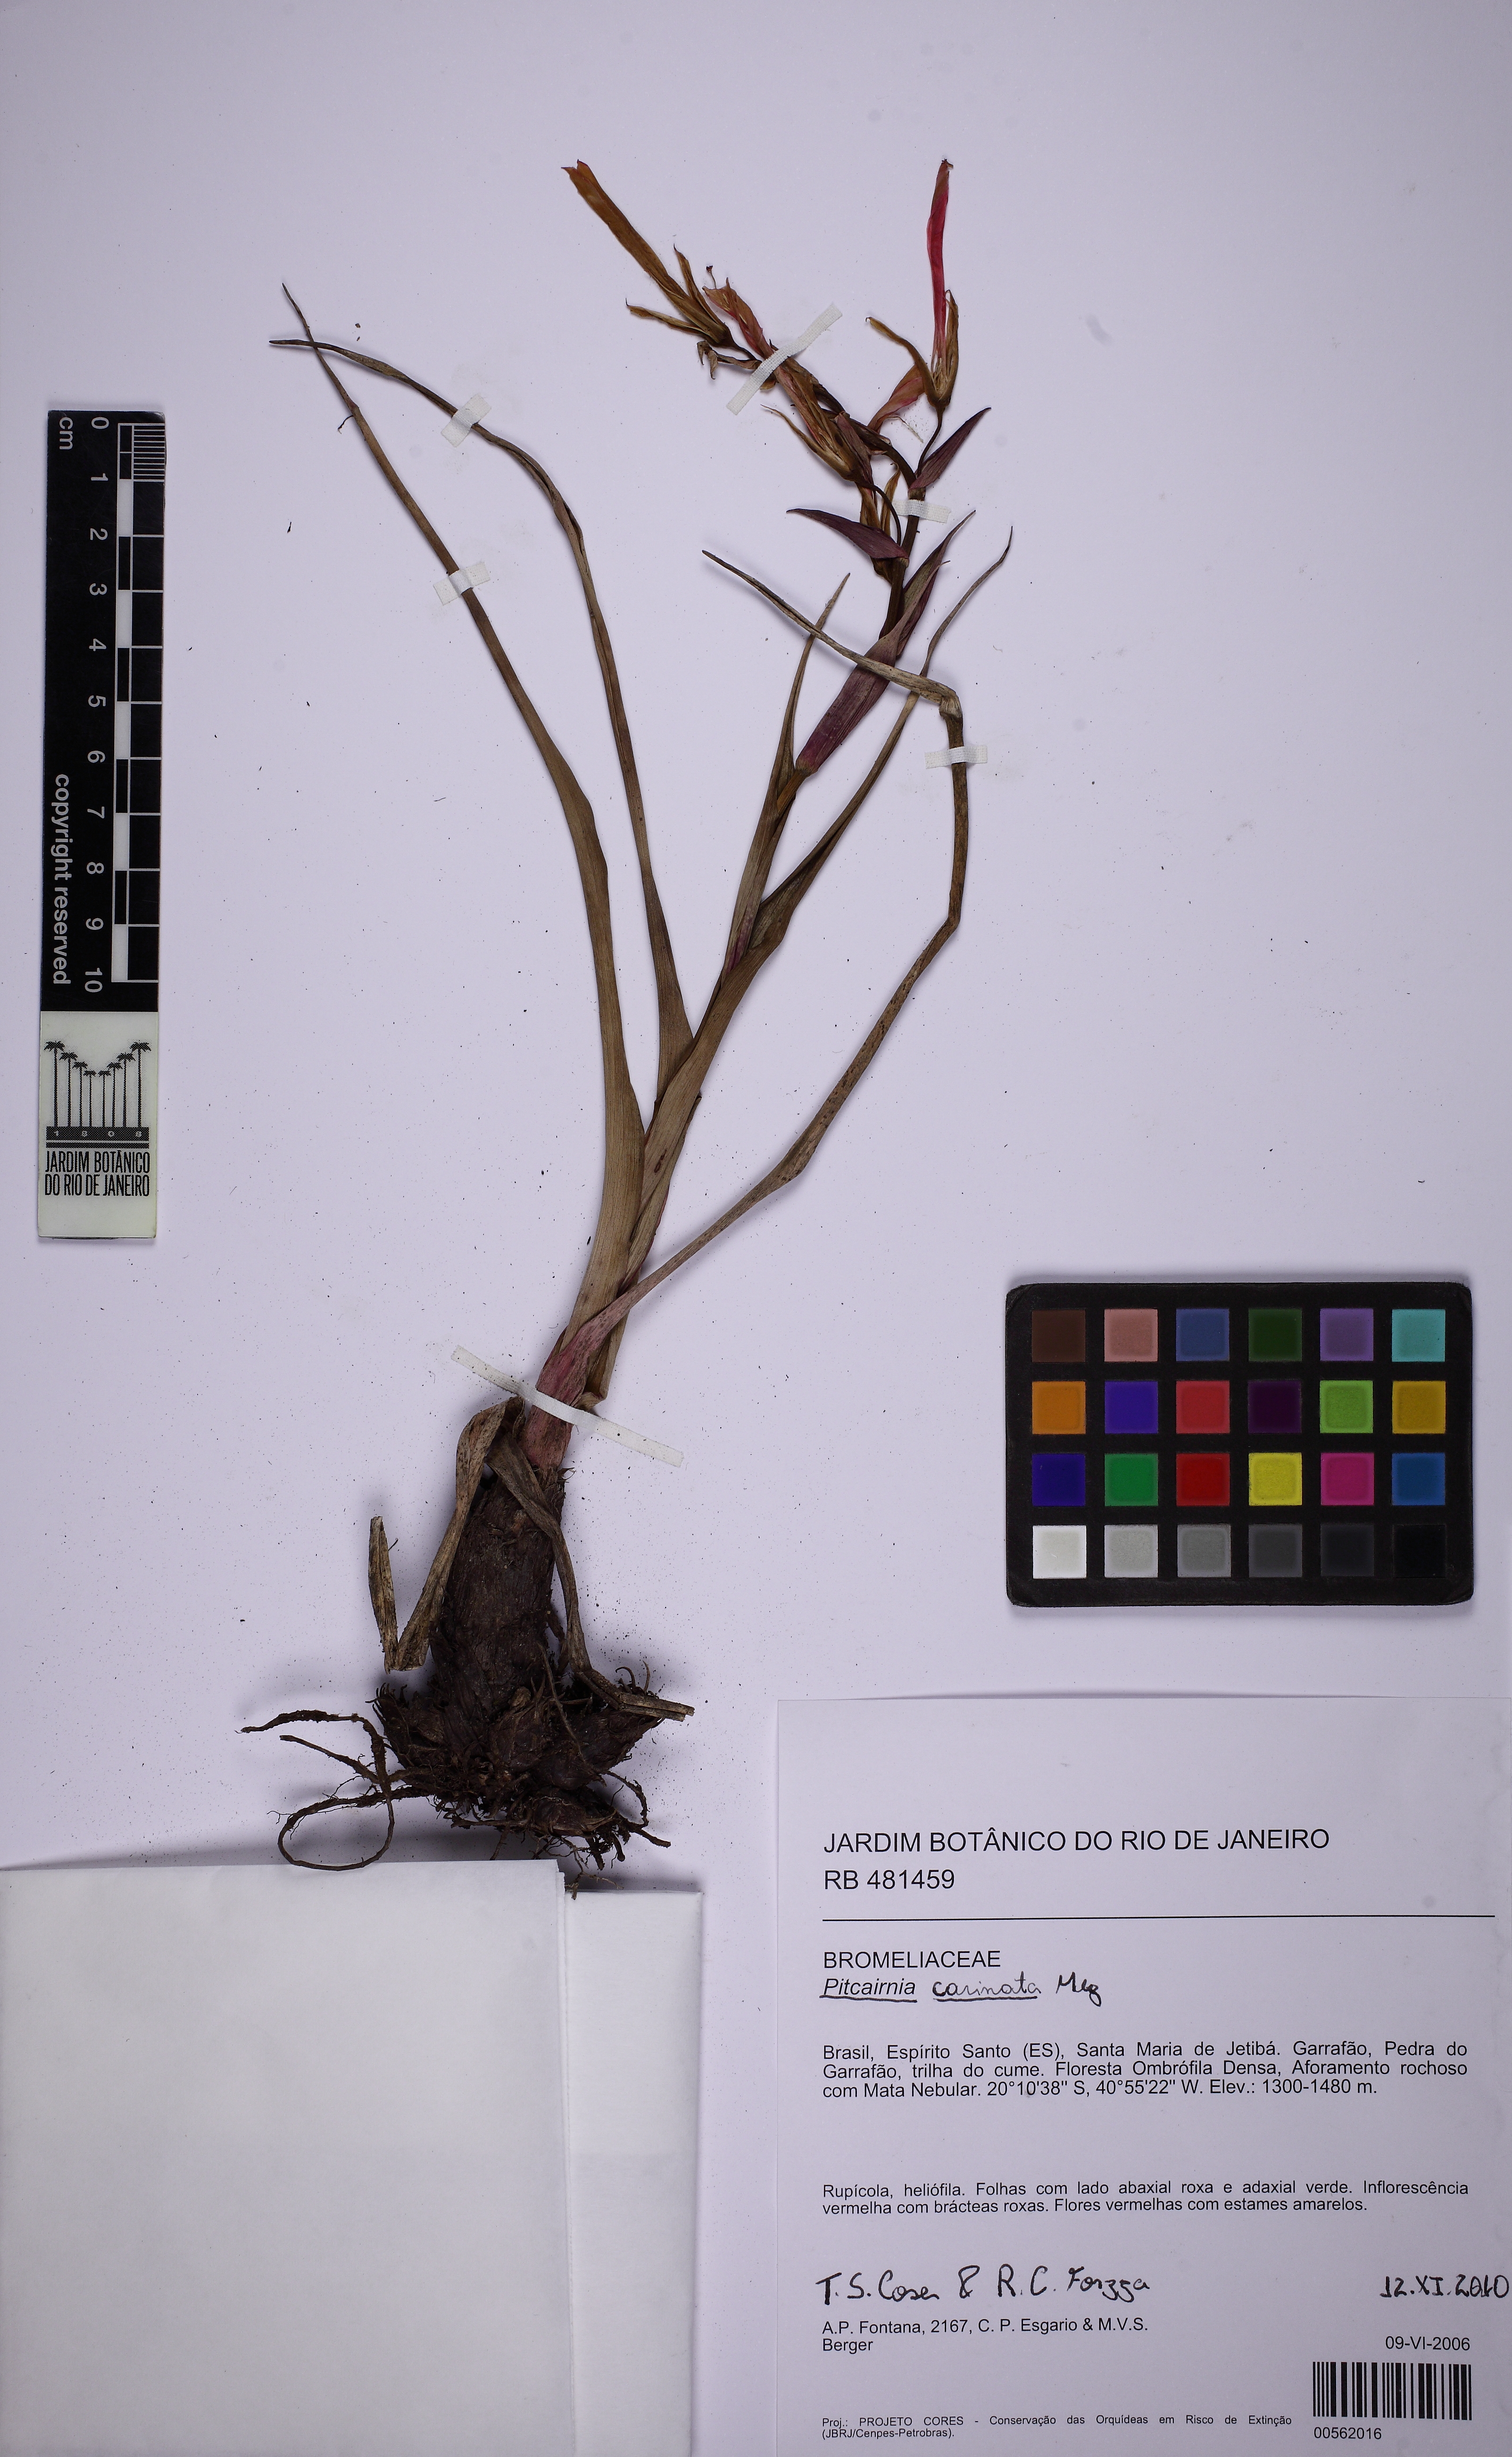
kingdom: Plantae
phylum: Tracheophyta
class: Liliopsida
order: Poales
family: Bromeliaceae
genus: Pitcairnia
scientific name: Pitcairnia carinata
